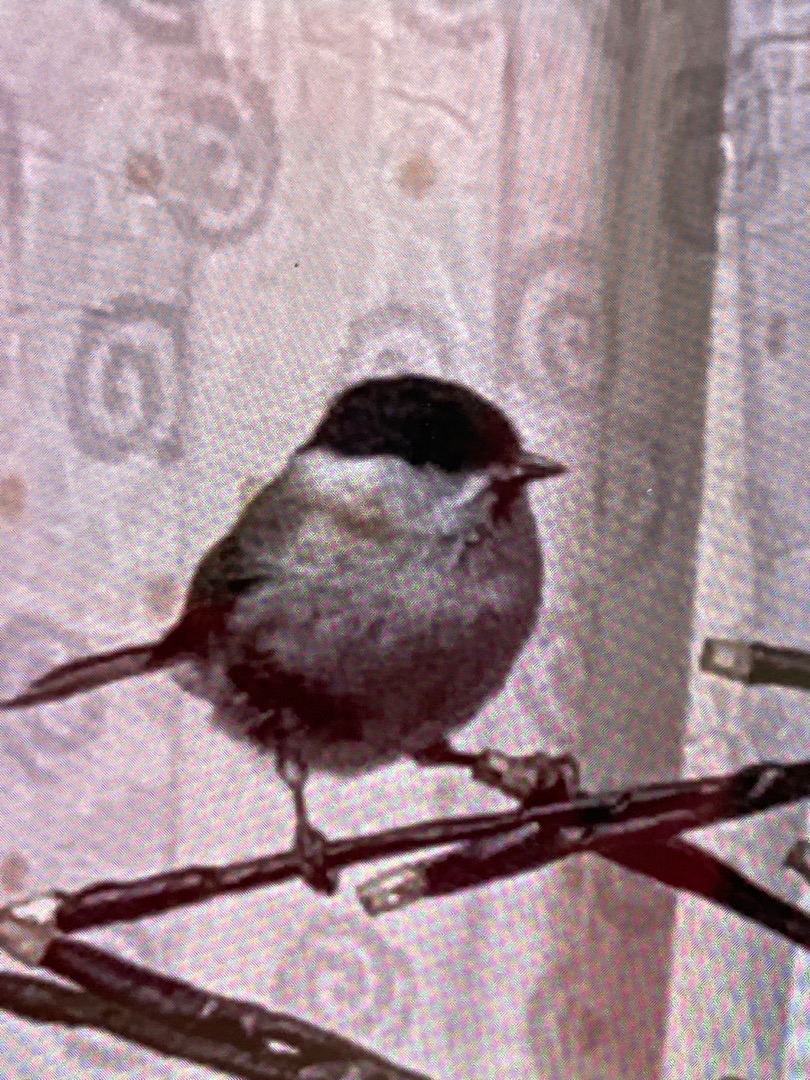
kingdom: Animalia
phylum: Chordata
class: Aves
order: Passeriformes
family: Paridae
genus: Poecile
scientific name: Poecile palustris
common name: Sumpmejse
